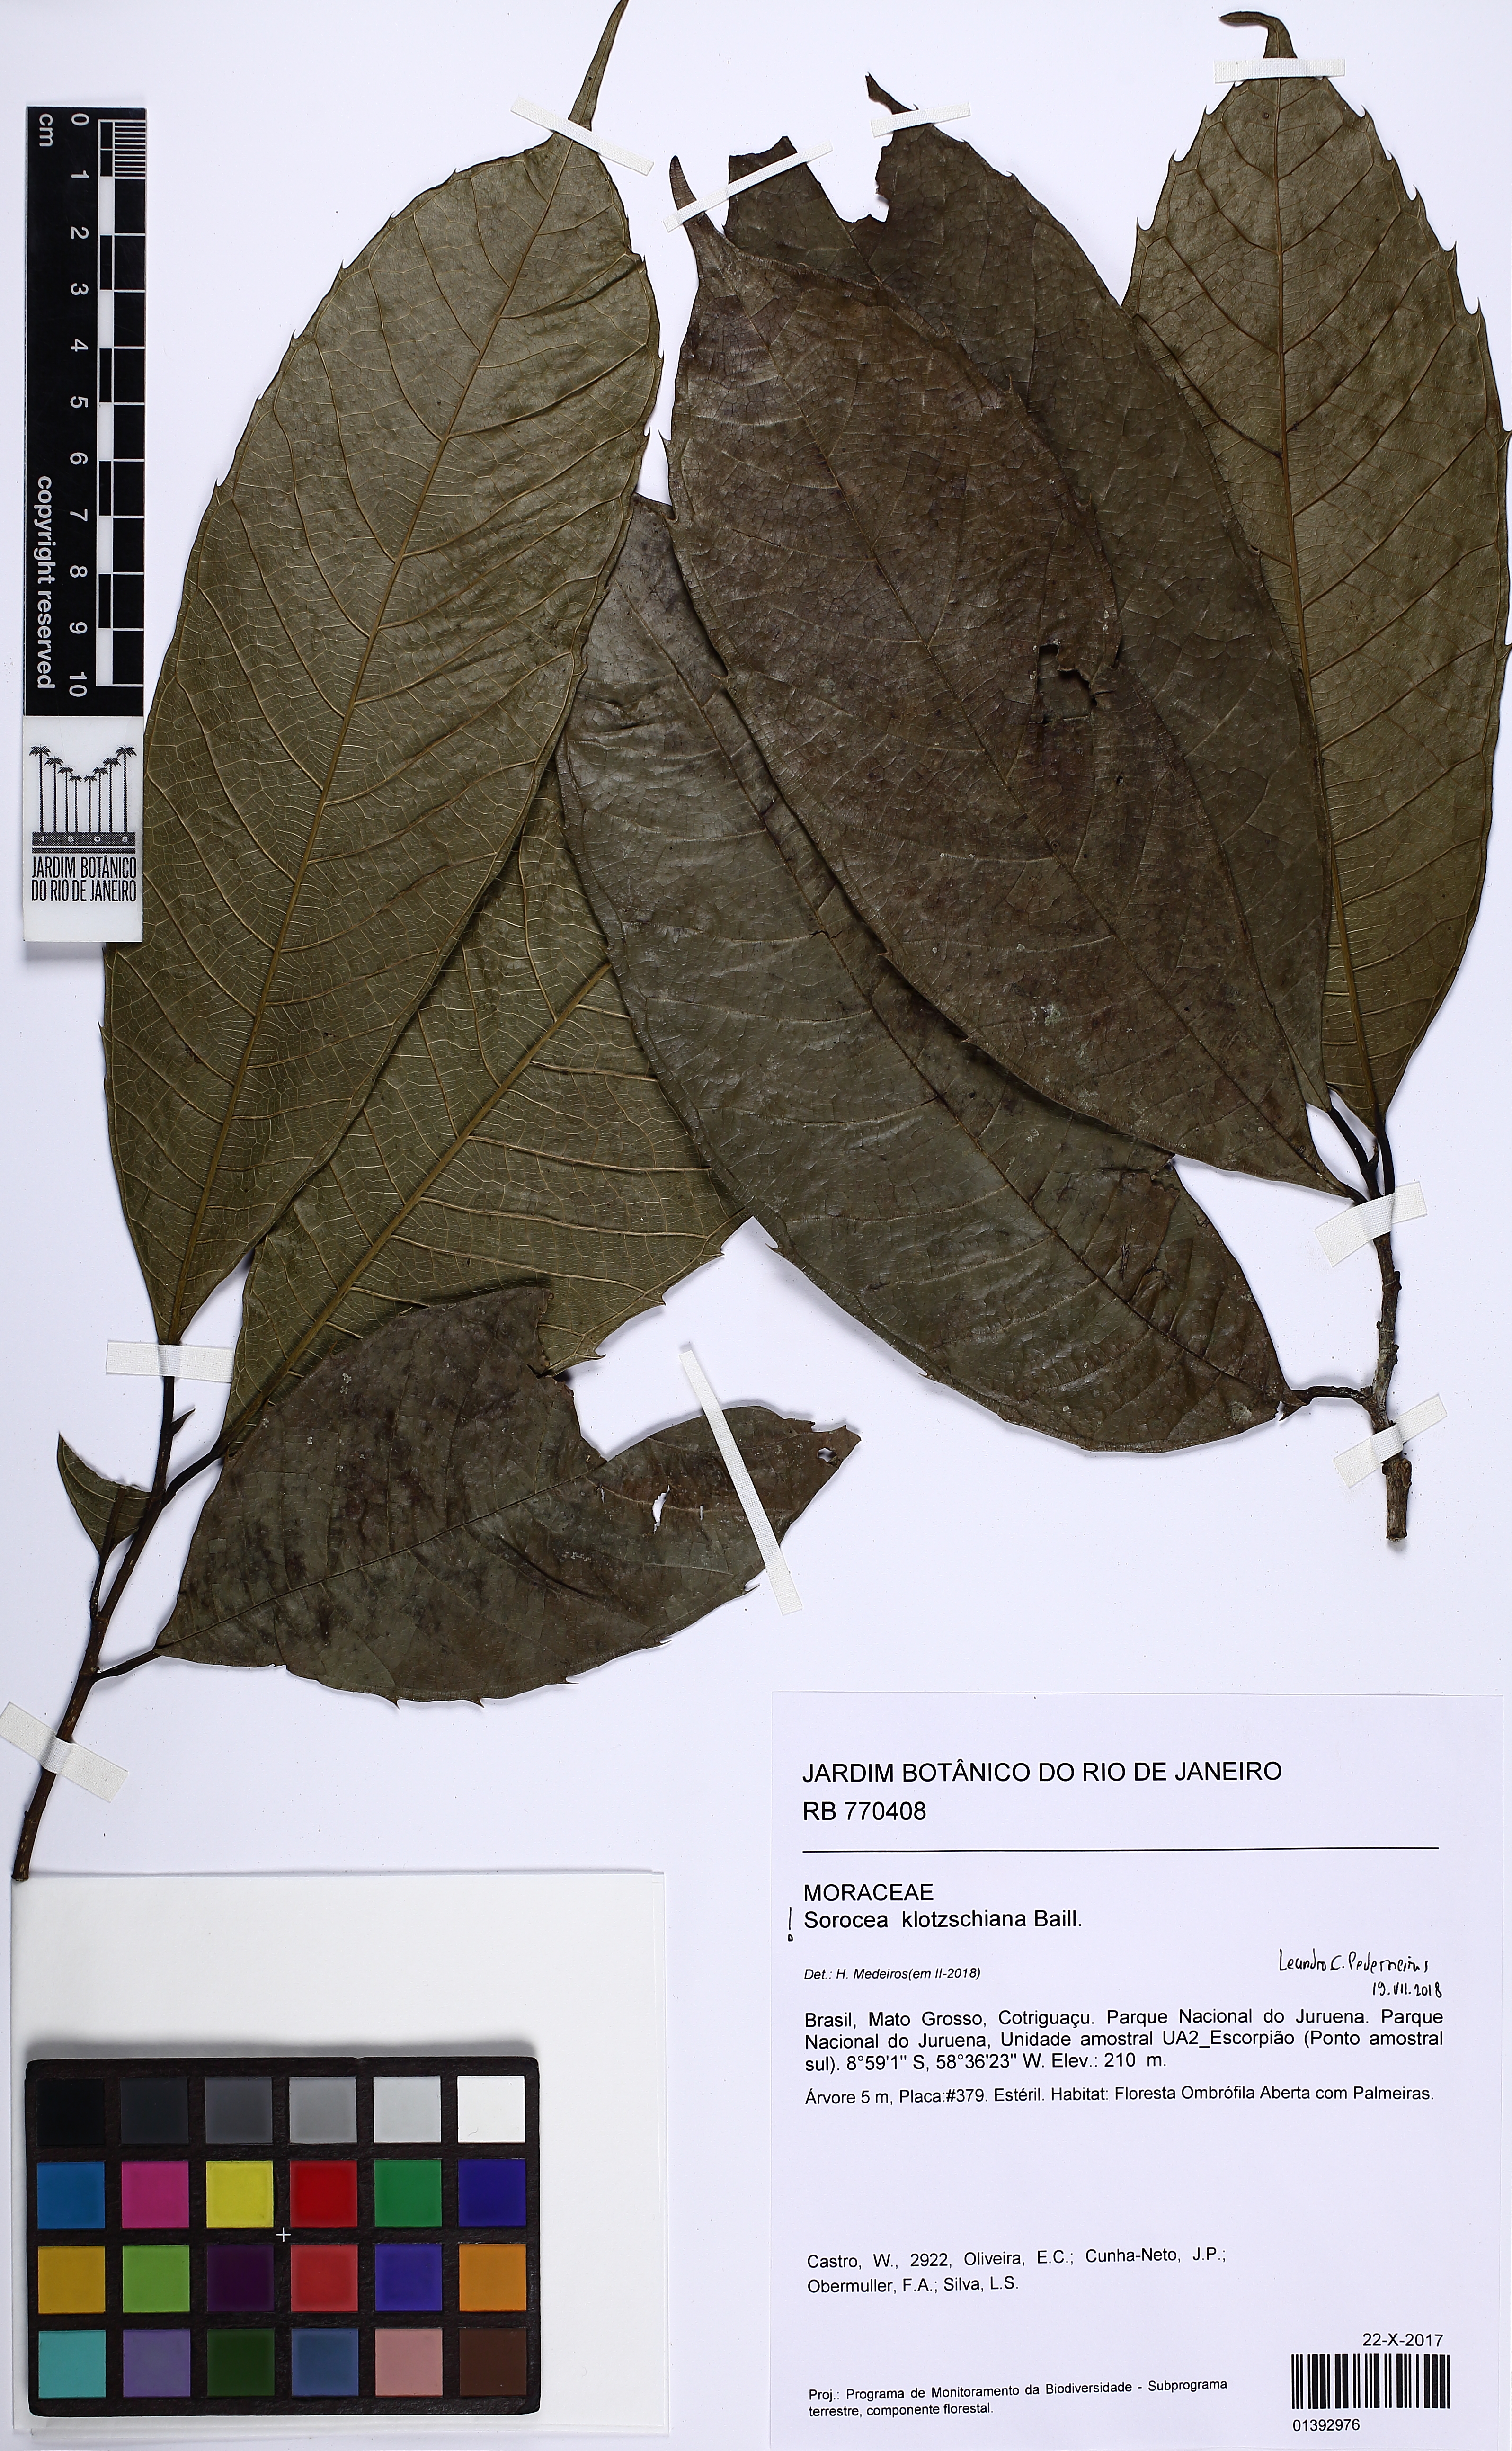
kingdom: Plantae
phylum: Tracheophyta
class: Magnoliopsida
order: Rosales
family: Moraceae
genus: Sorocea
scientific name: Sorocea guilleminiana
